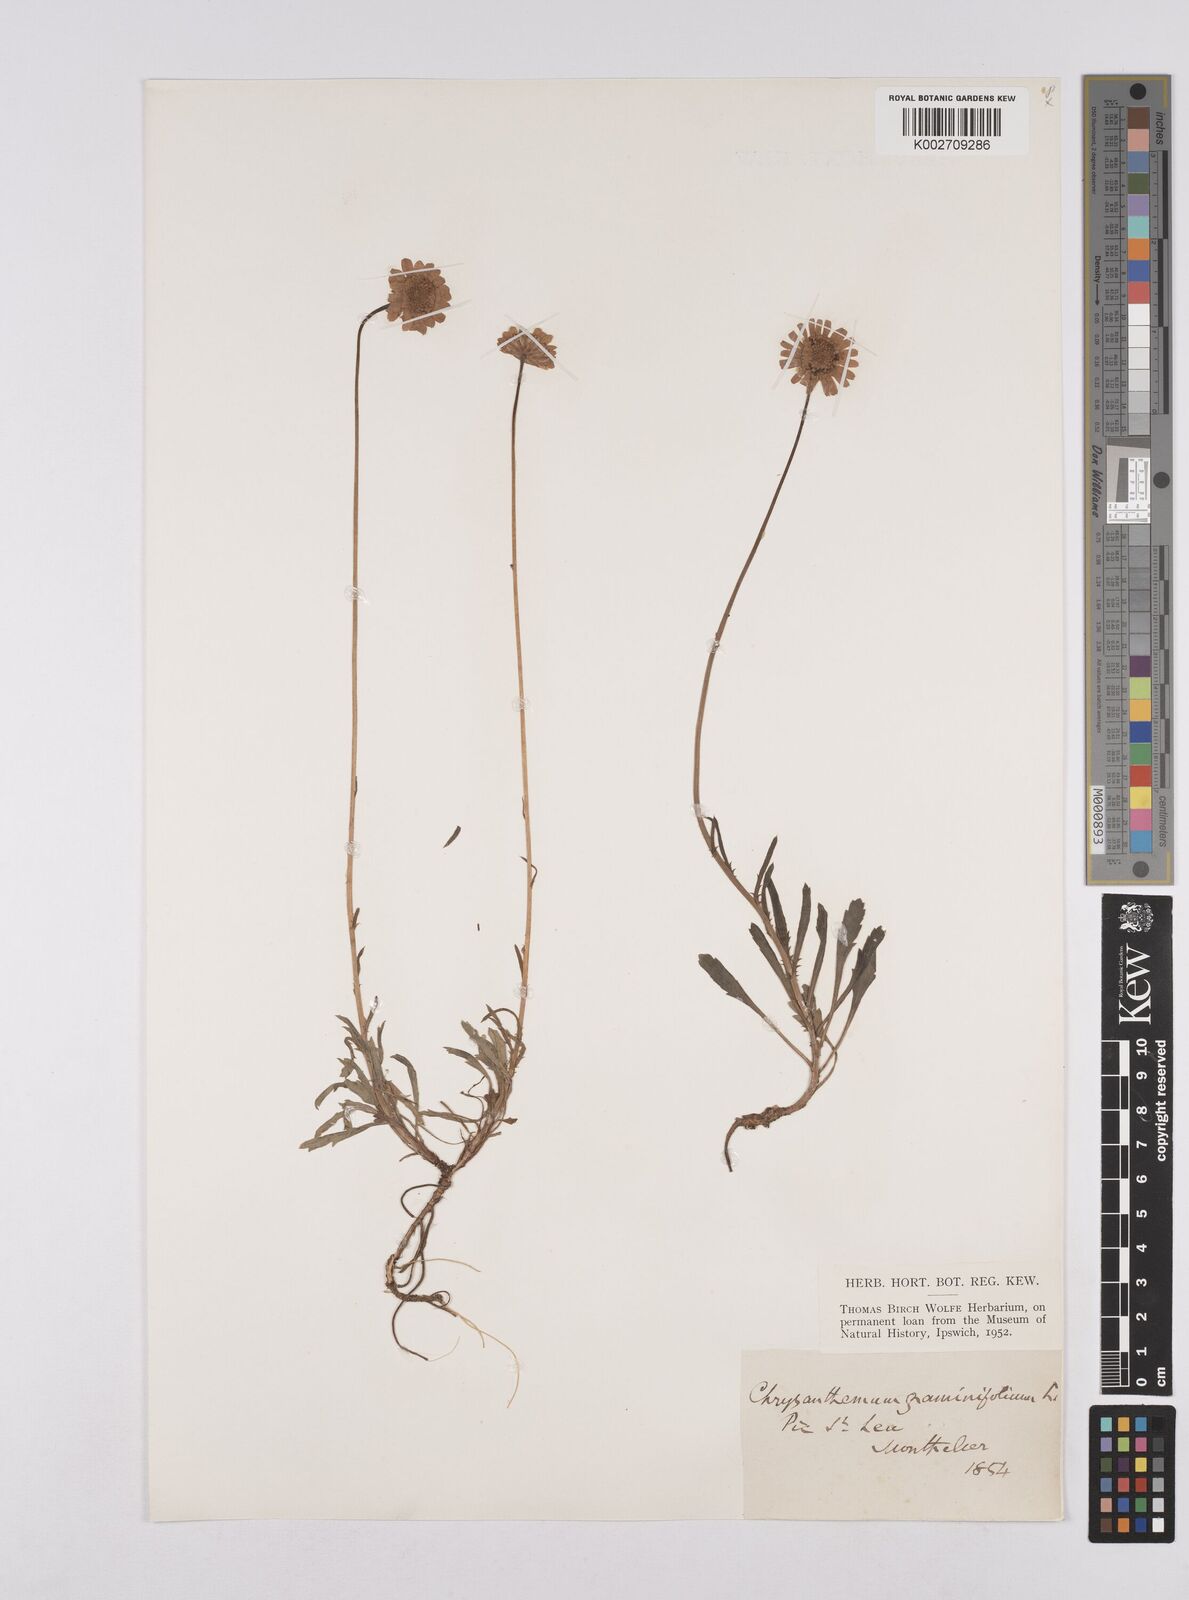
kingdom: Plantae
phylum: Tracheophyta
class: Magnoliopsida
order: Asterales
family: Asteraceae
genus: Leucanthemum
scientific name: Leucanthemum chloroticum
